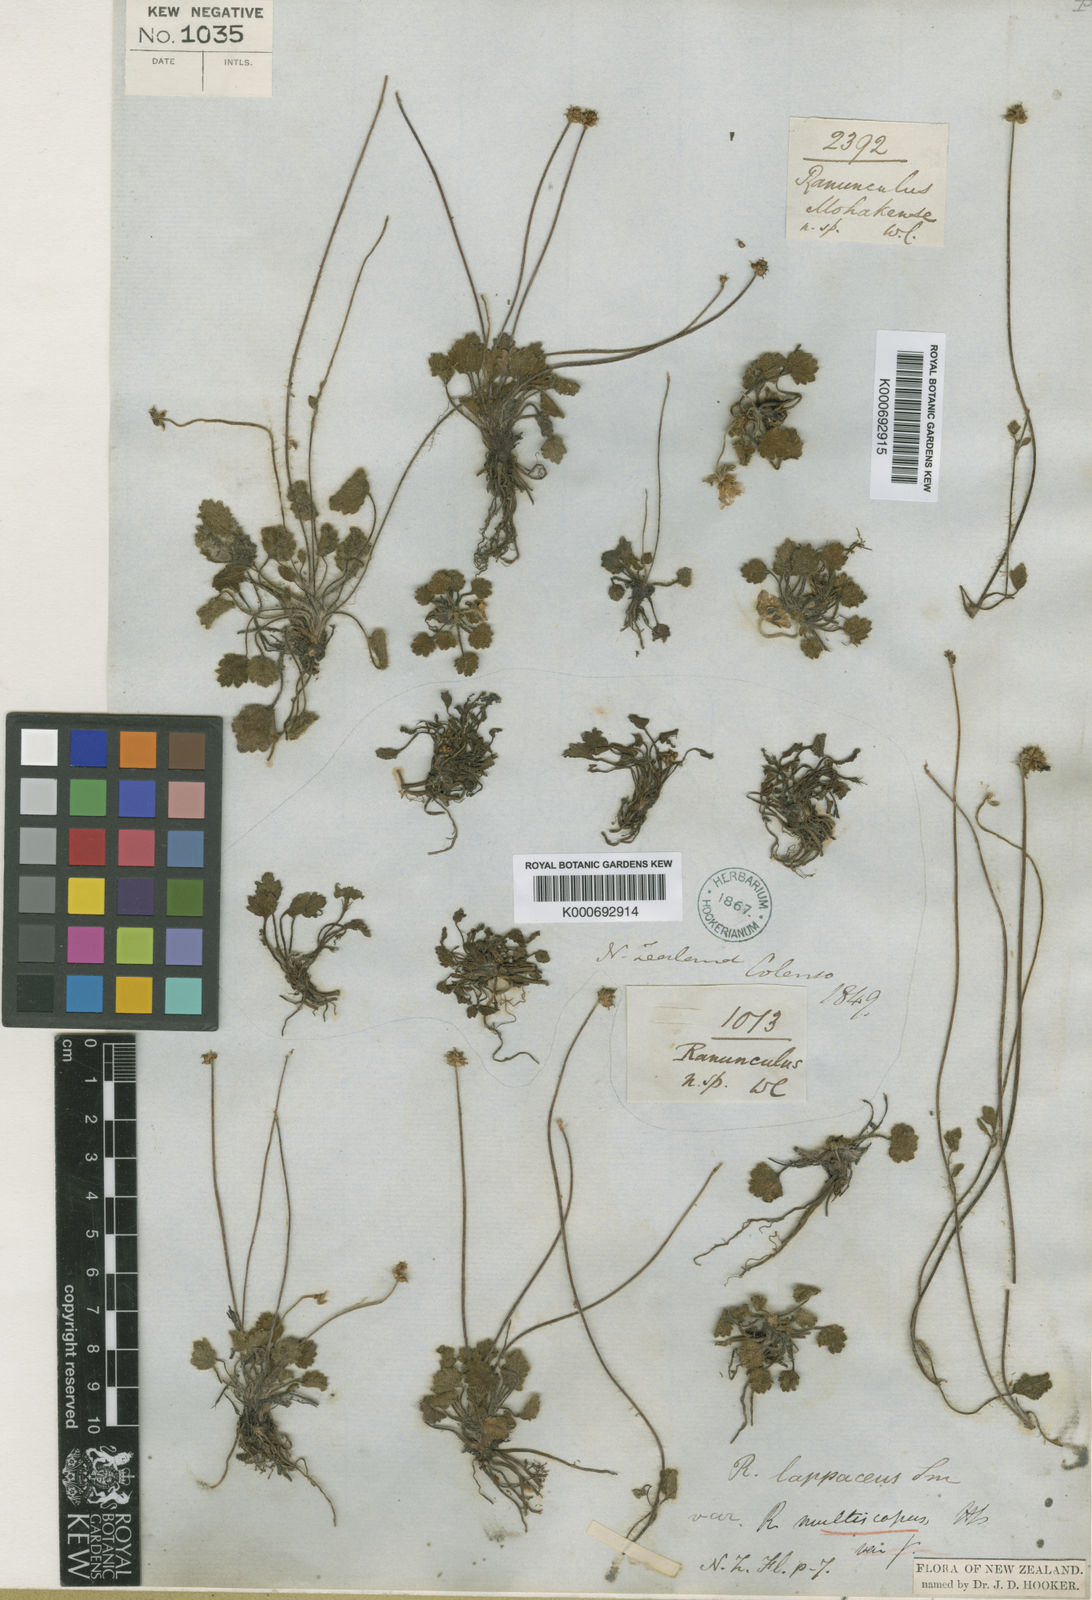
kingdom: Plantae
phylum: Tracheophyta
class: Magnoliopsida
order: Ranunculales
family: Ranunculaceae
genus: Ranunculus
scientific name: Ranunculus lappaceus
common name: Australian buttercup
